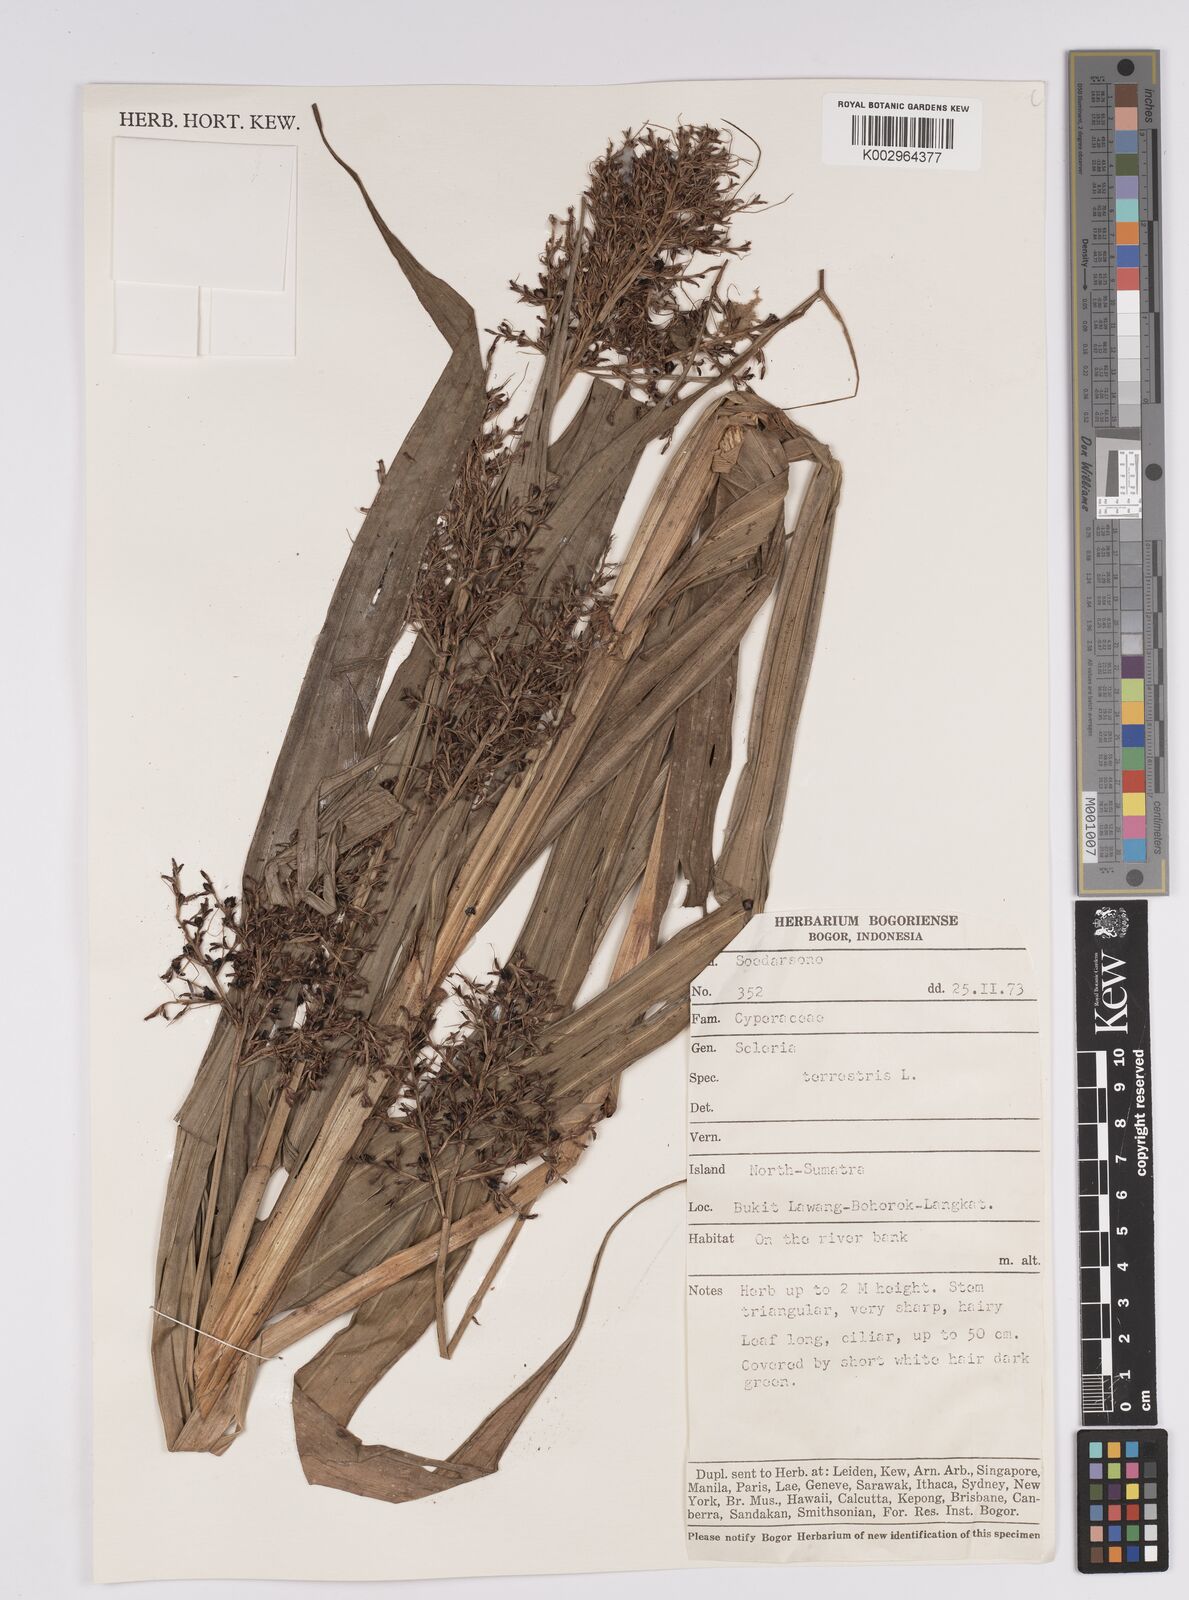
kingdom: Plantae
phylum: Tracheophyta
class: Liliopsida
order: Poales
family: Cyperaceae
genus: Scleria
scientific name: Scleria terrestris
